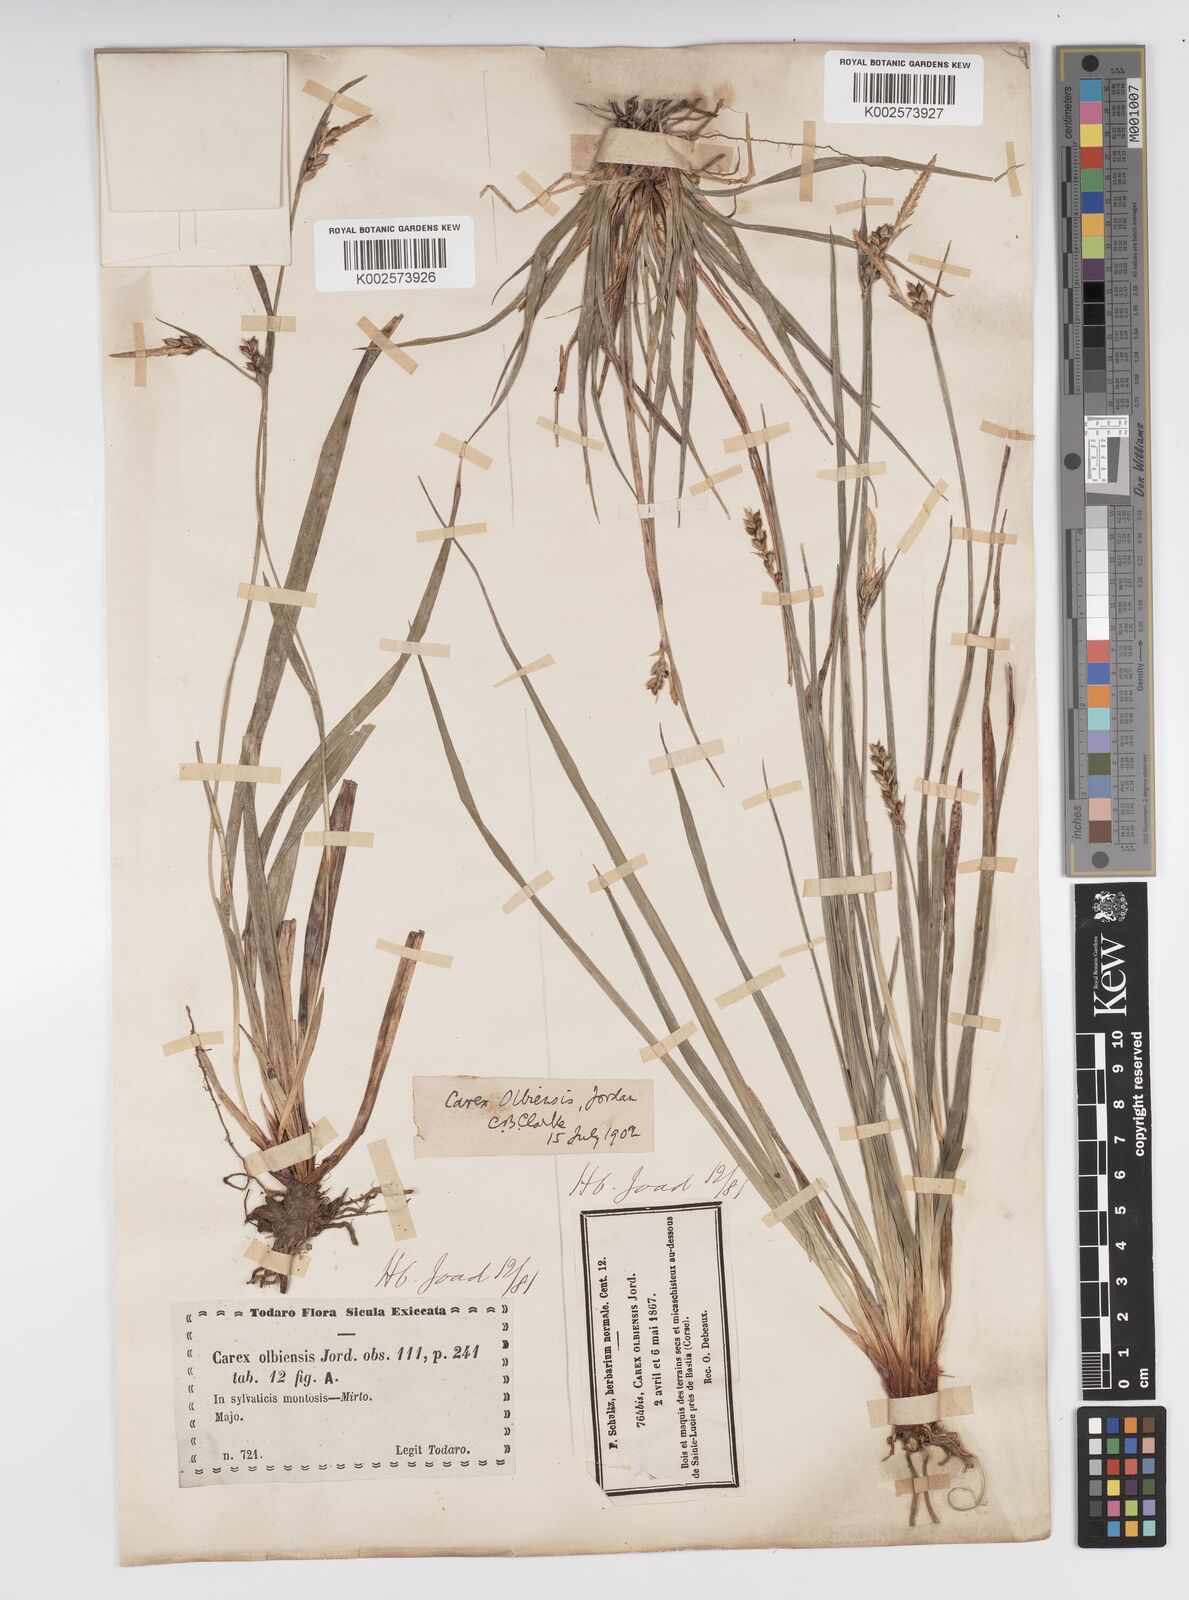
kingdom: Plantae
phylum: Tracheophyta
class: Liliopsida
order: Poales
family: Cyperaceae
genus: Carex
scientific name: Carex olbiensis
